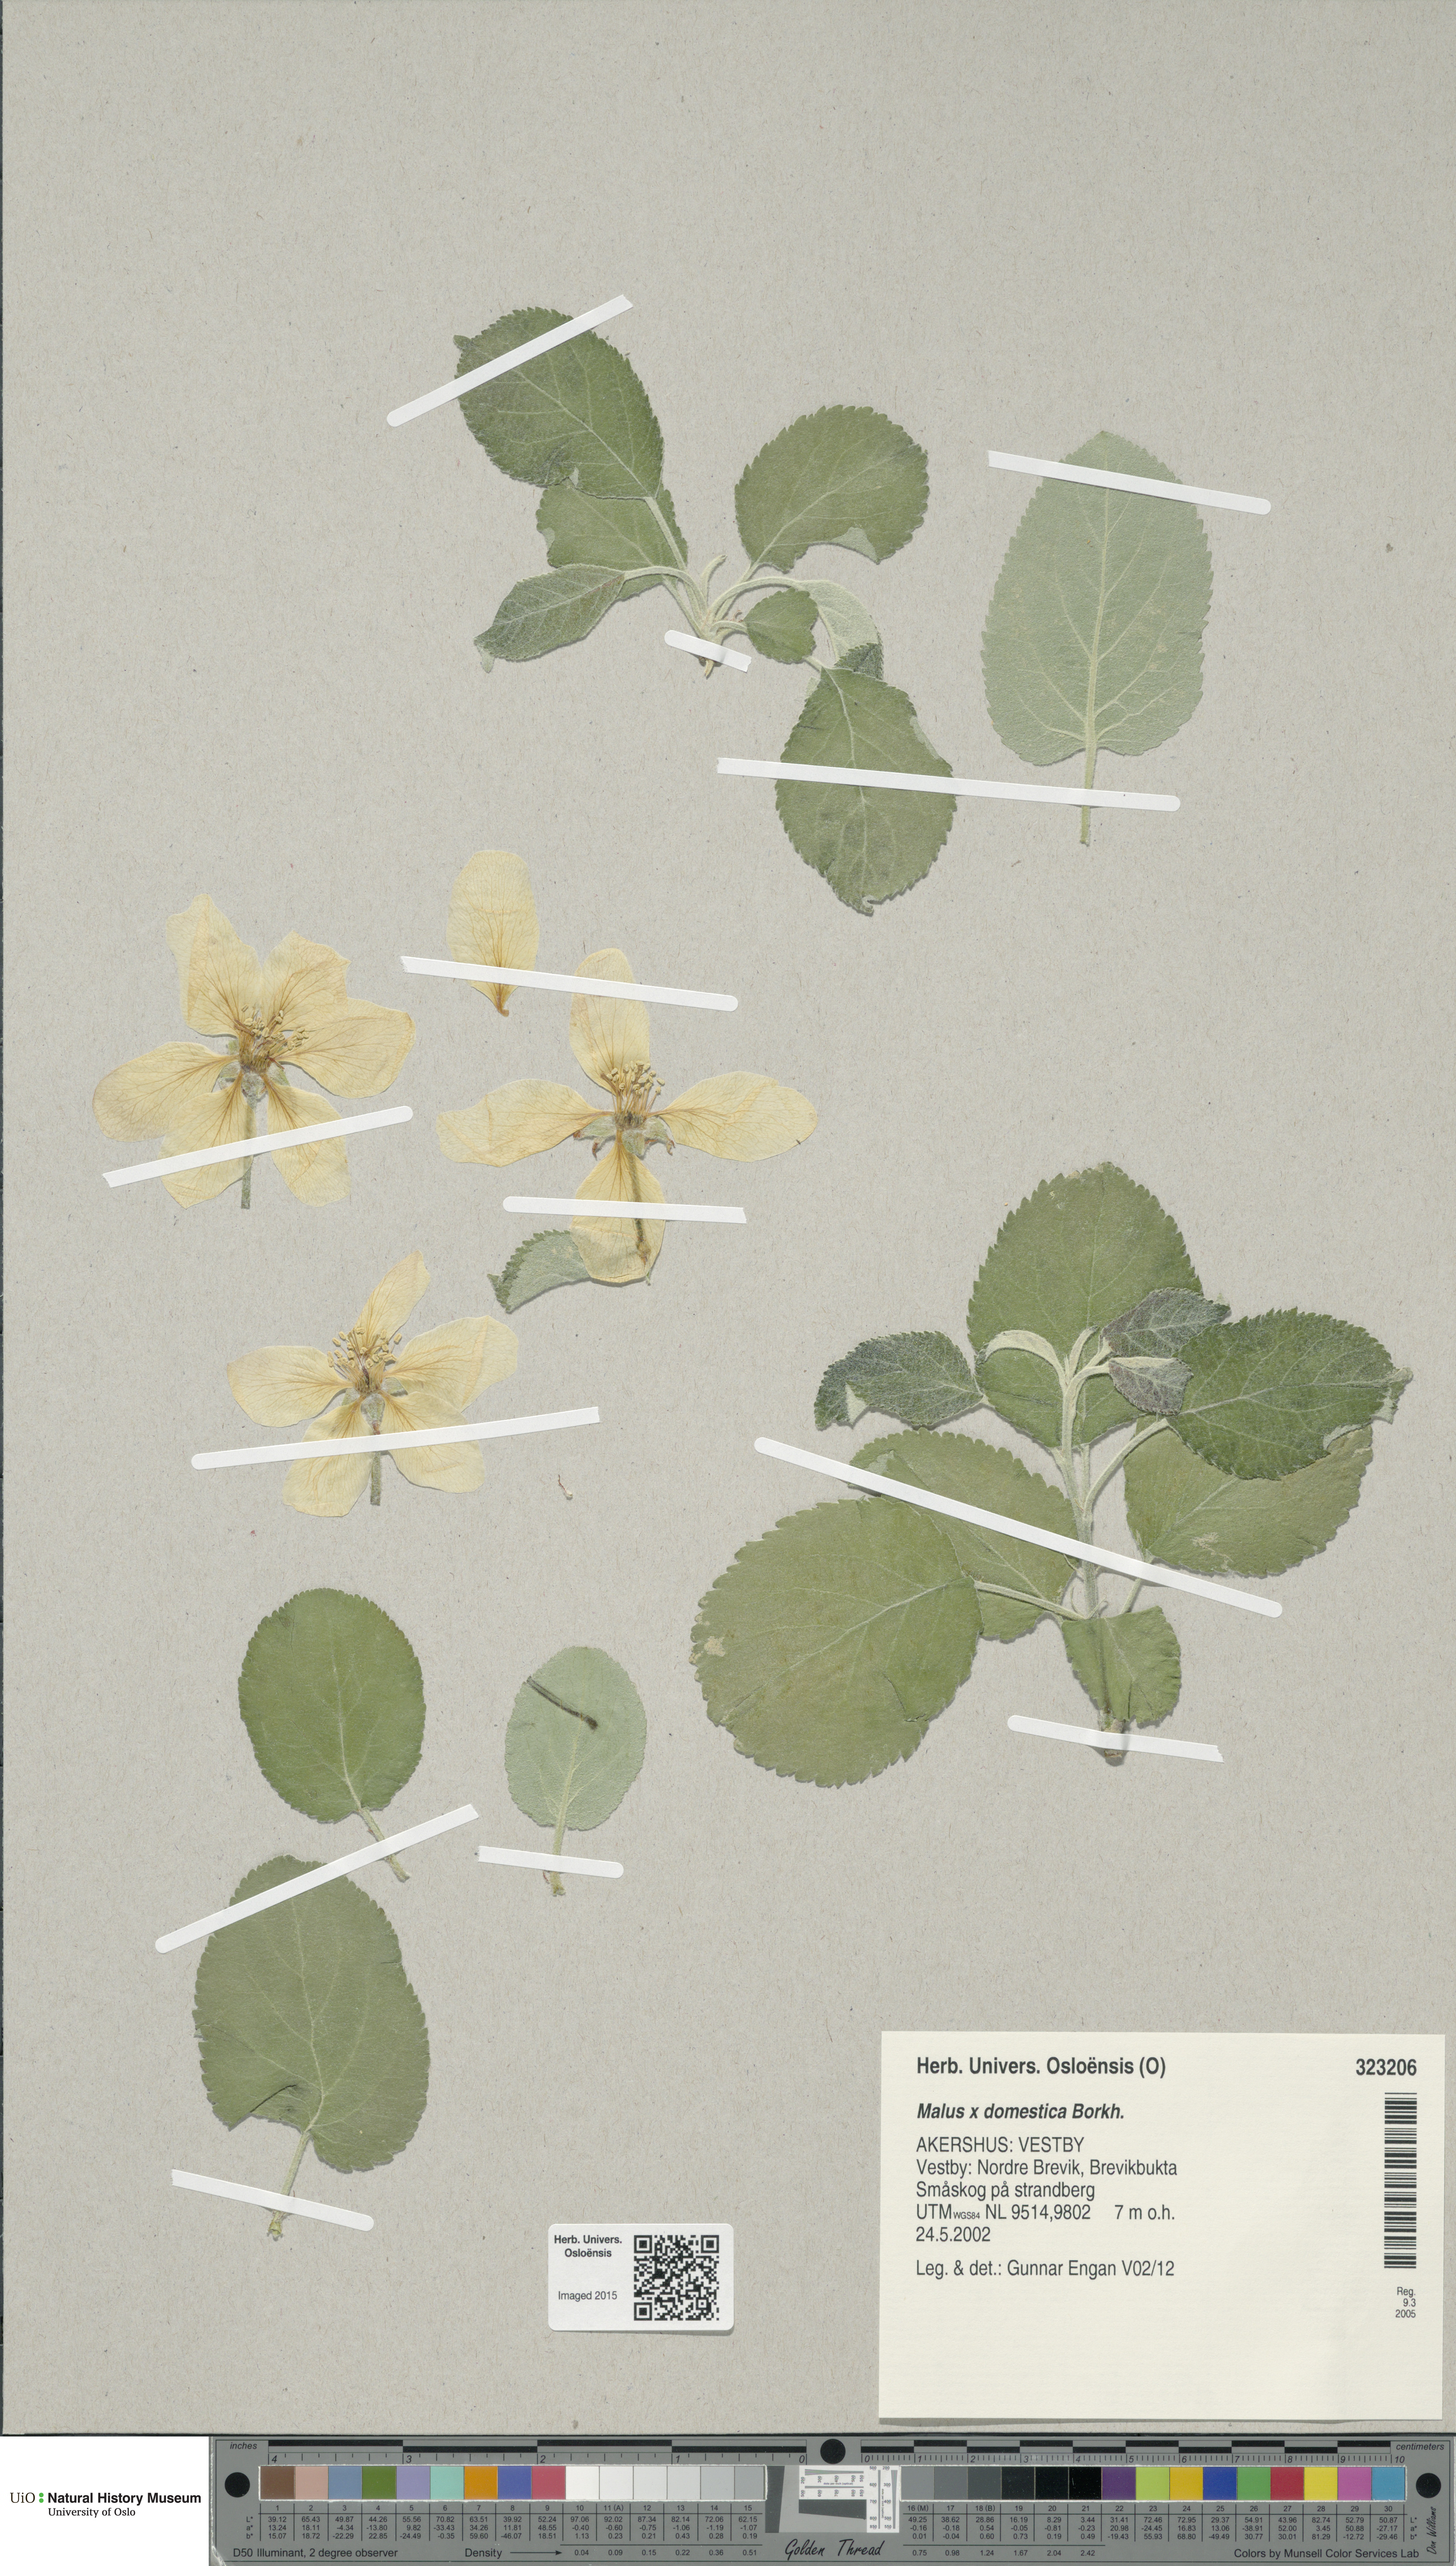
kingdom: Plantae
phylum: Tracheophyta
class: Magnoliopsida
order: Rosales
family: Rosaceae
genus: Malus
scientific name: Malus domestica
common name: Apple
